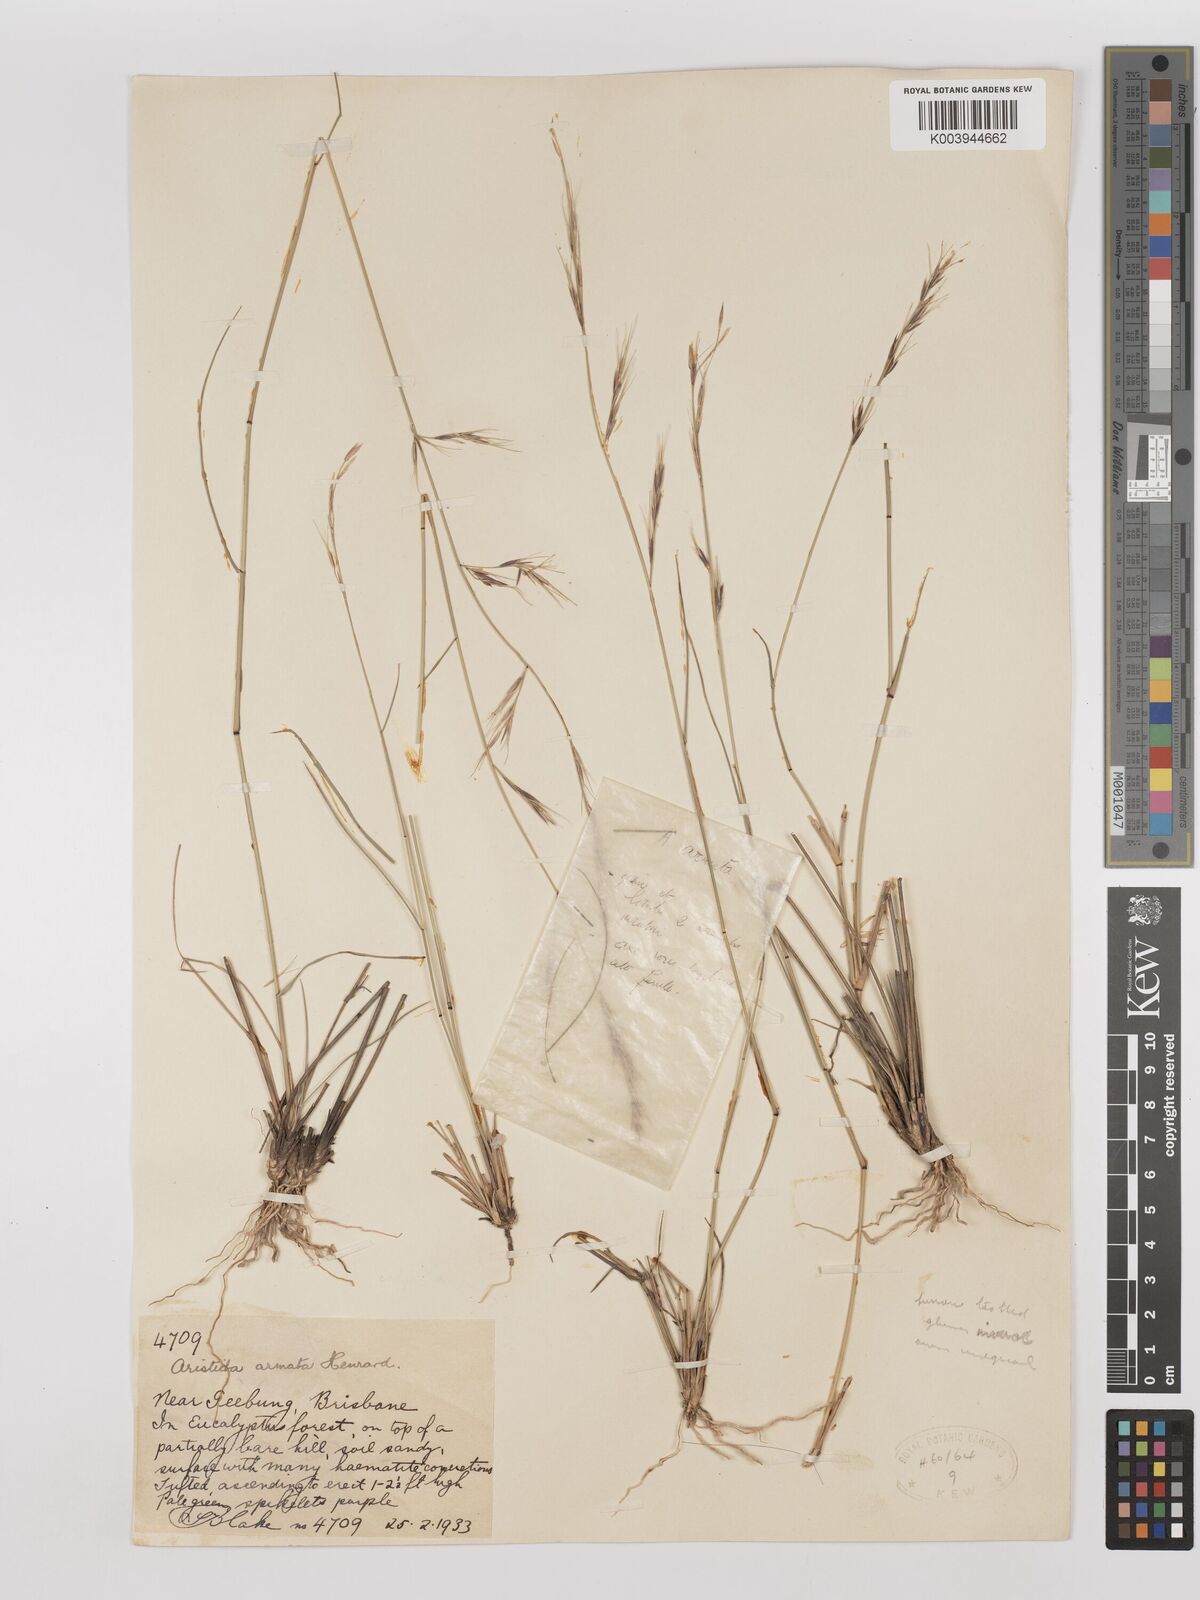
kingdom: Plantae
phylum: Tracheophyta
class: Liliopsida
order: Poales
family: Poaceae
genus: Aristida
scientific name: Aristida calycina
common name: Dark wire grass
